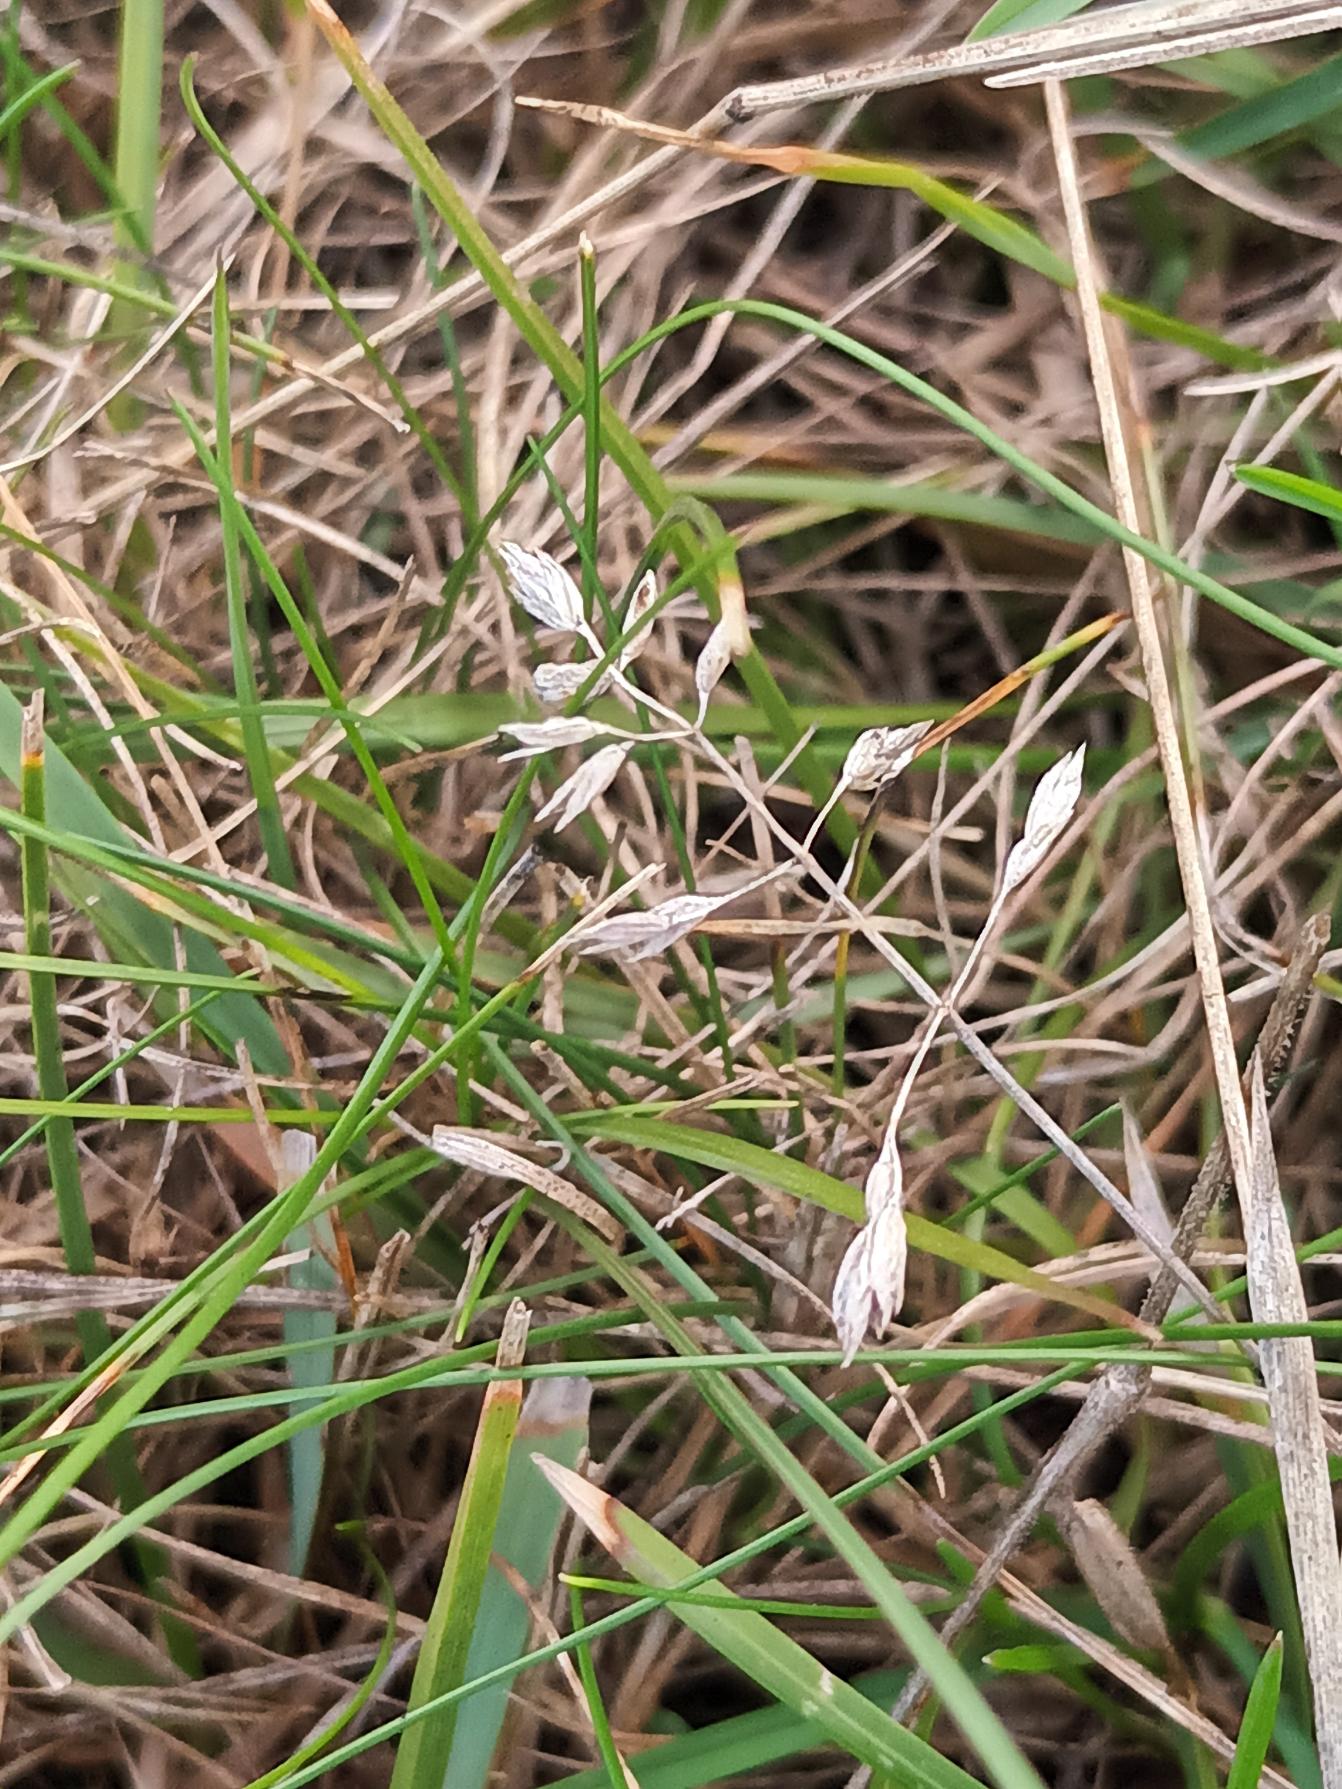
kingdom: Plantae
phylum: Tracheophyta
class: Liliopsida
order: Poales
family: Poaceae
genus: Poa
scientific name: Poa humilis
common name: Blågrøn rapgræs
